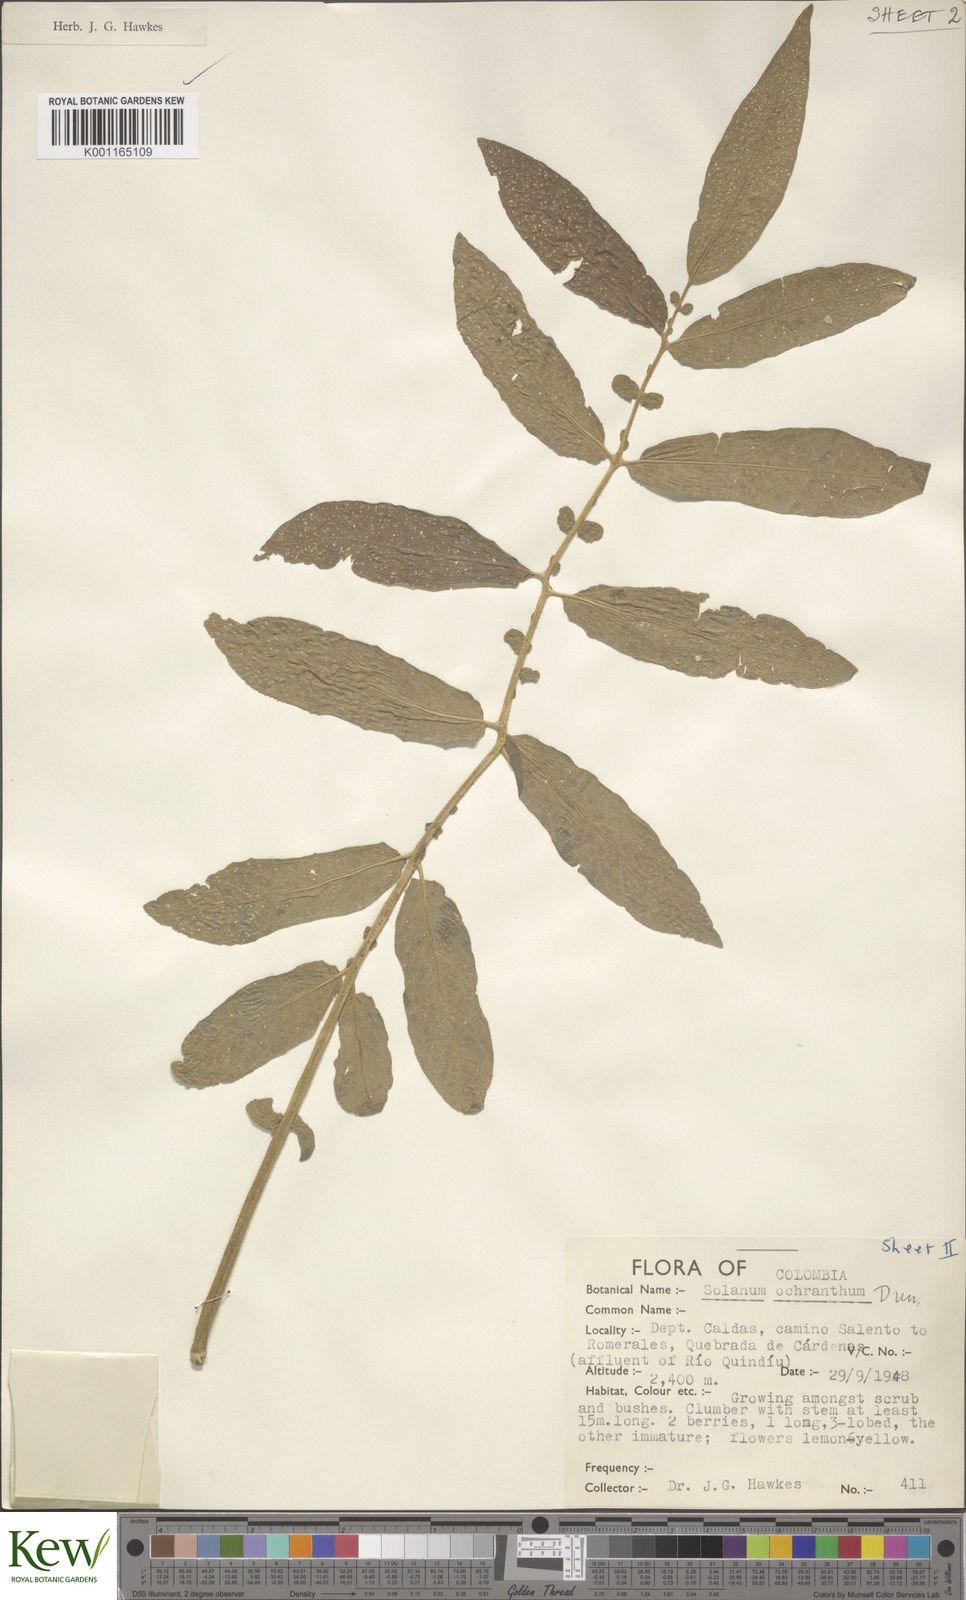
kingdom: Plantae
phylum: Tracheophyta
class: Magnoliopsida
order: Solanales
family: Solanaceae
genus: Solanum
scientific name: Solanum ochranthum
